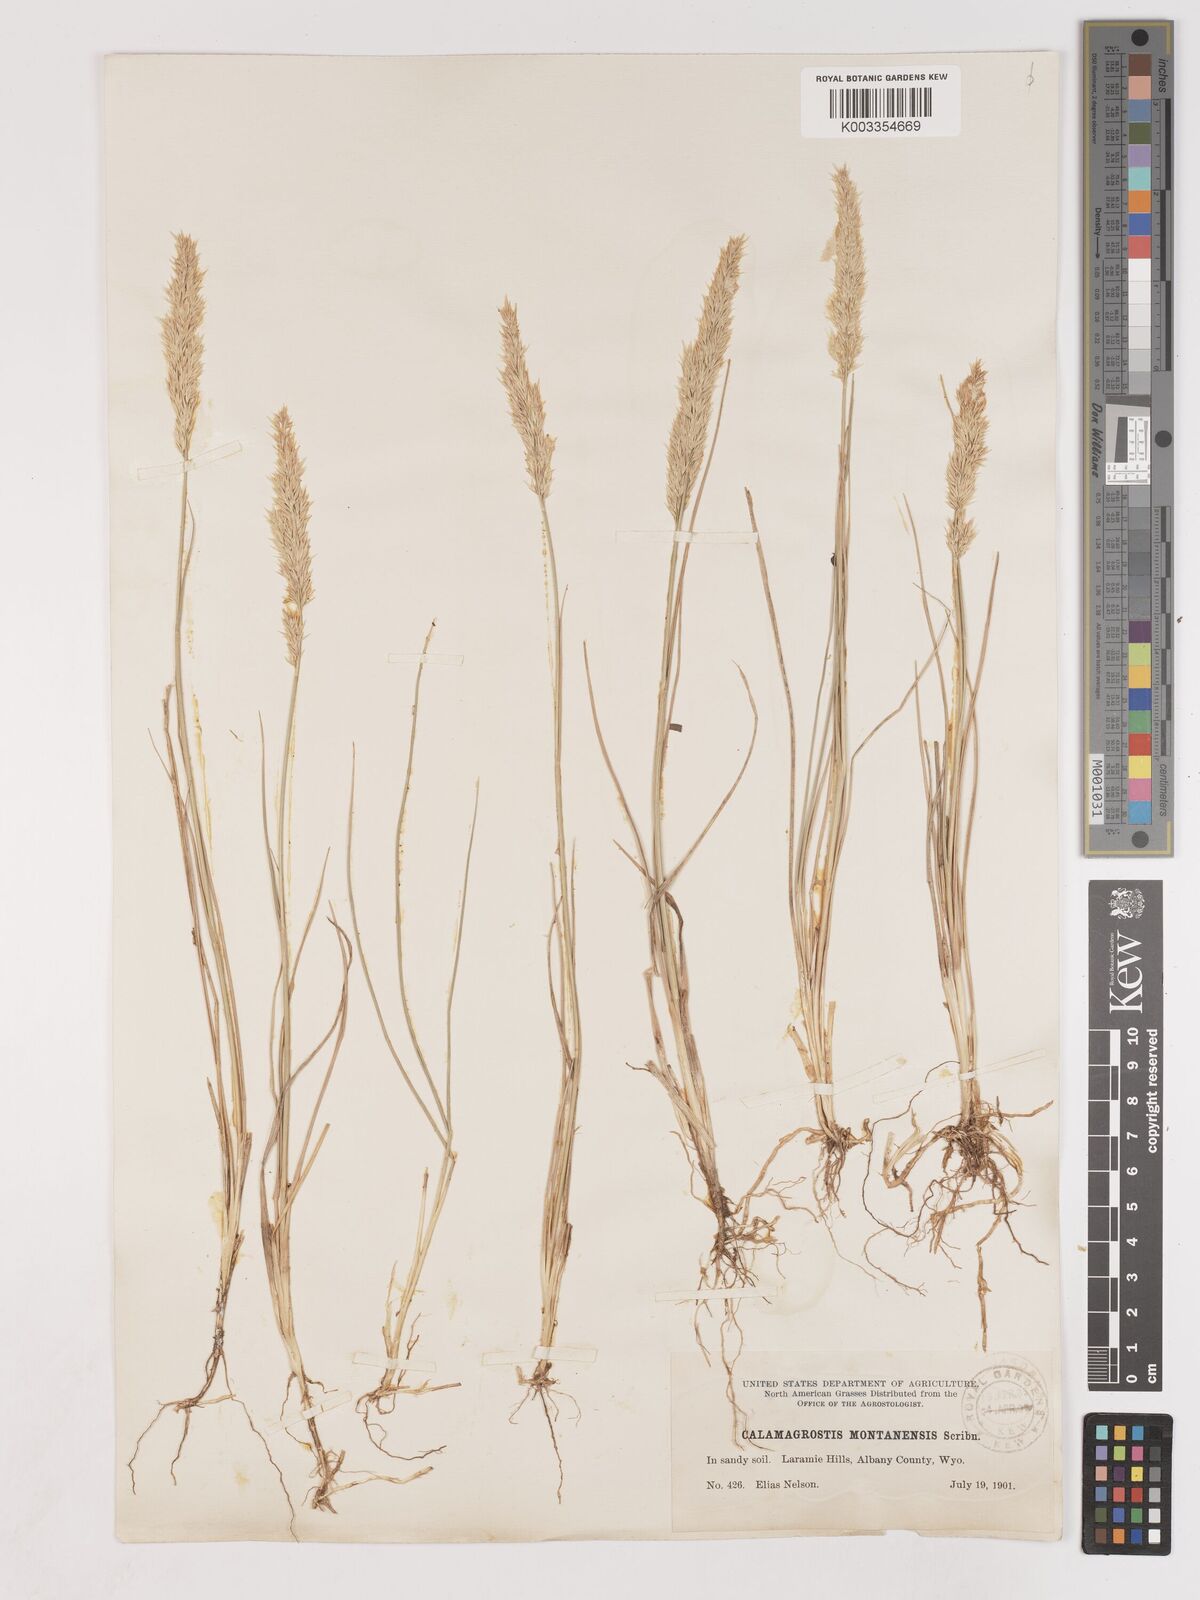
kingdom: Plantae
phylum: Tracheophyta
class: Liliopsida
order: Poales
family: Poaceae
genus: Calamagrostis
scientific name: Calamagrostis montanensis
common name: Plains reedgrass
